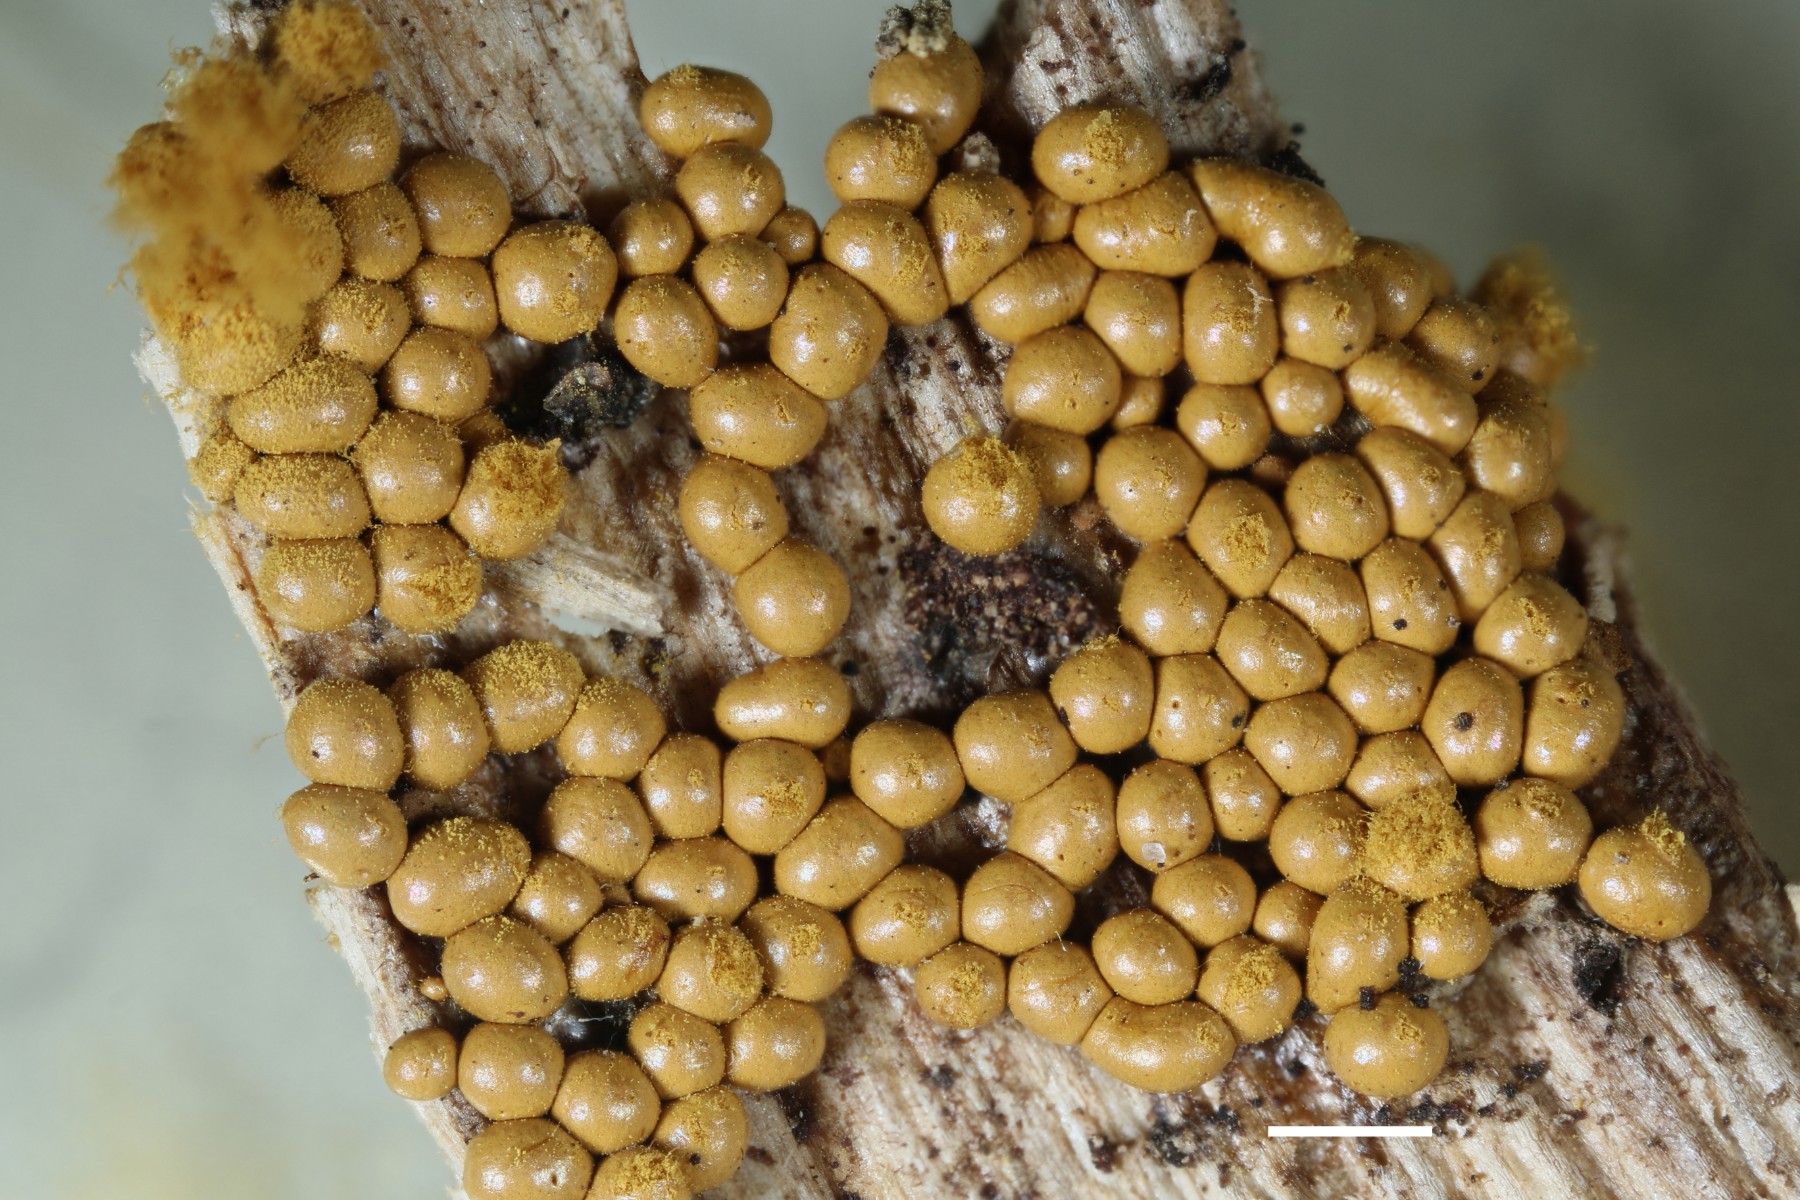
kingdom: Protozoa
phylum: Mycetozoa
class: Myxomycetes
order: Trichiales
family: Trichiaceae
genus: Oligonema
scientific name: Oligonema persimile
